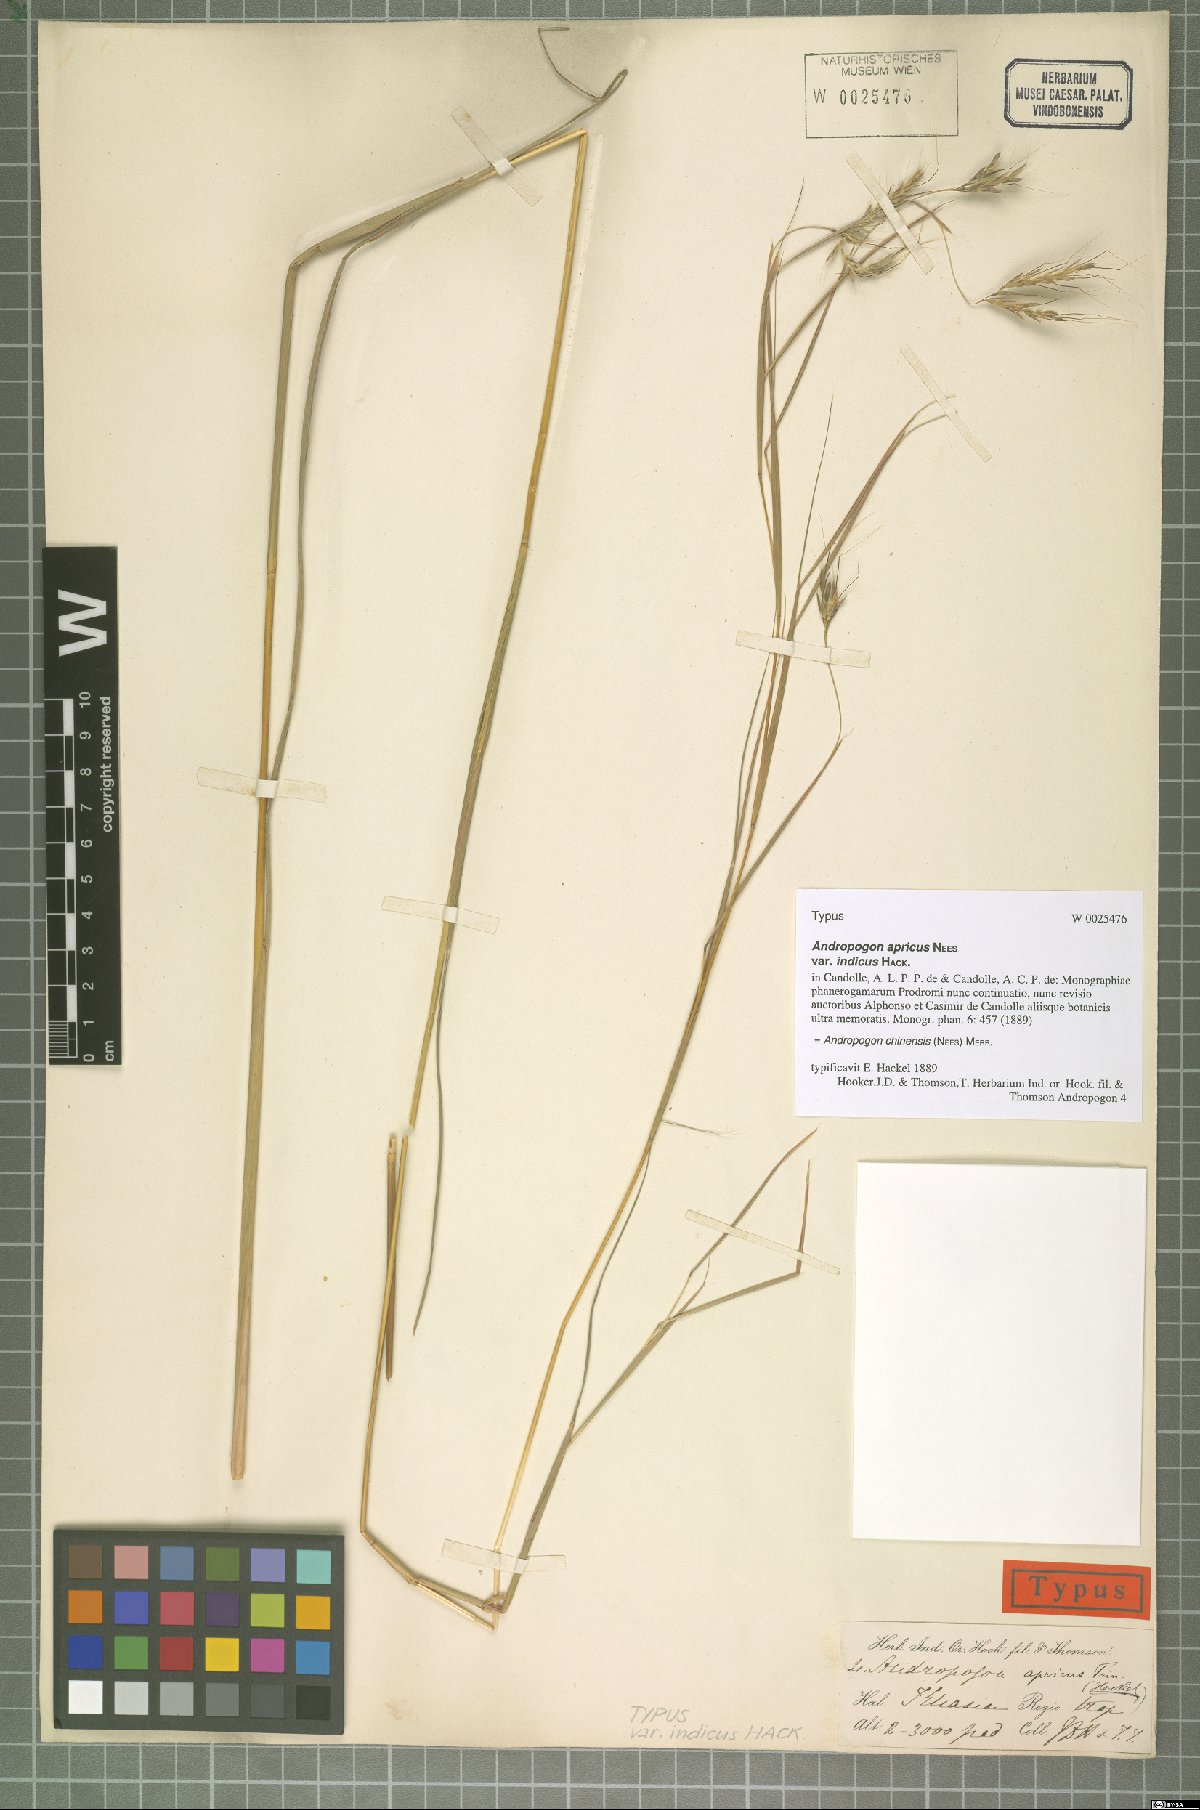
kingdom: Plantae
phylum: Tracheophyta
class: Liliopsida
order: Poales
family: Poaceae
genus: Andropogon
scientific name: Andropogon chinensis
